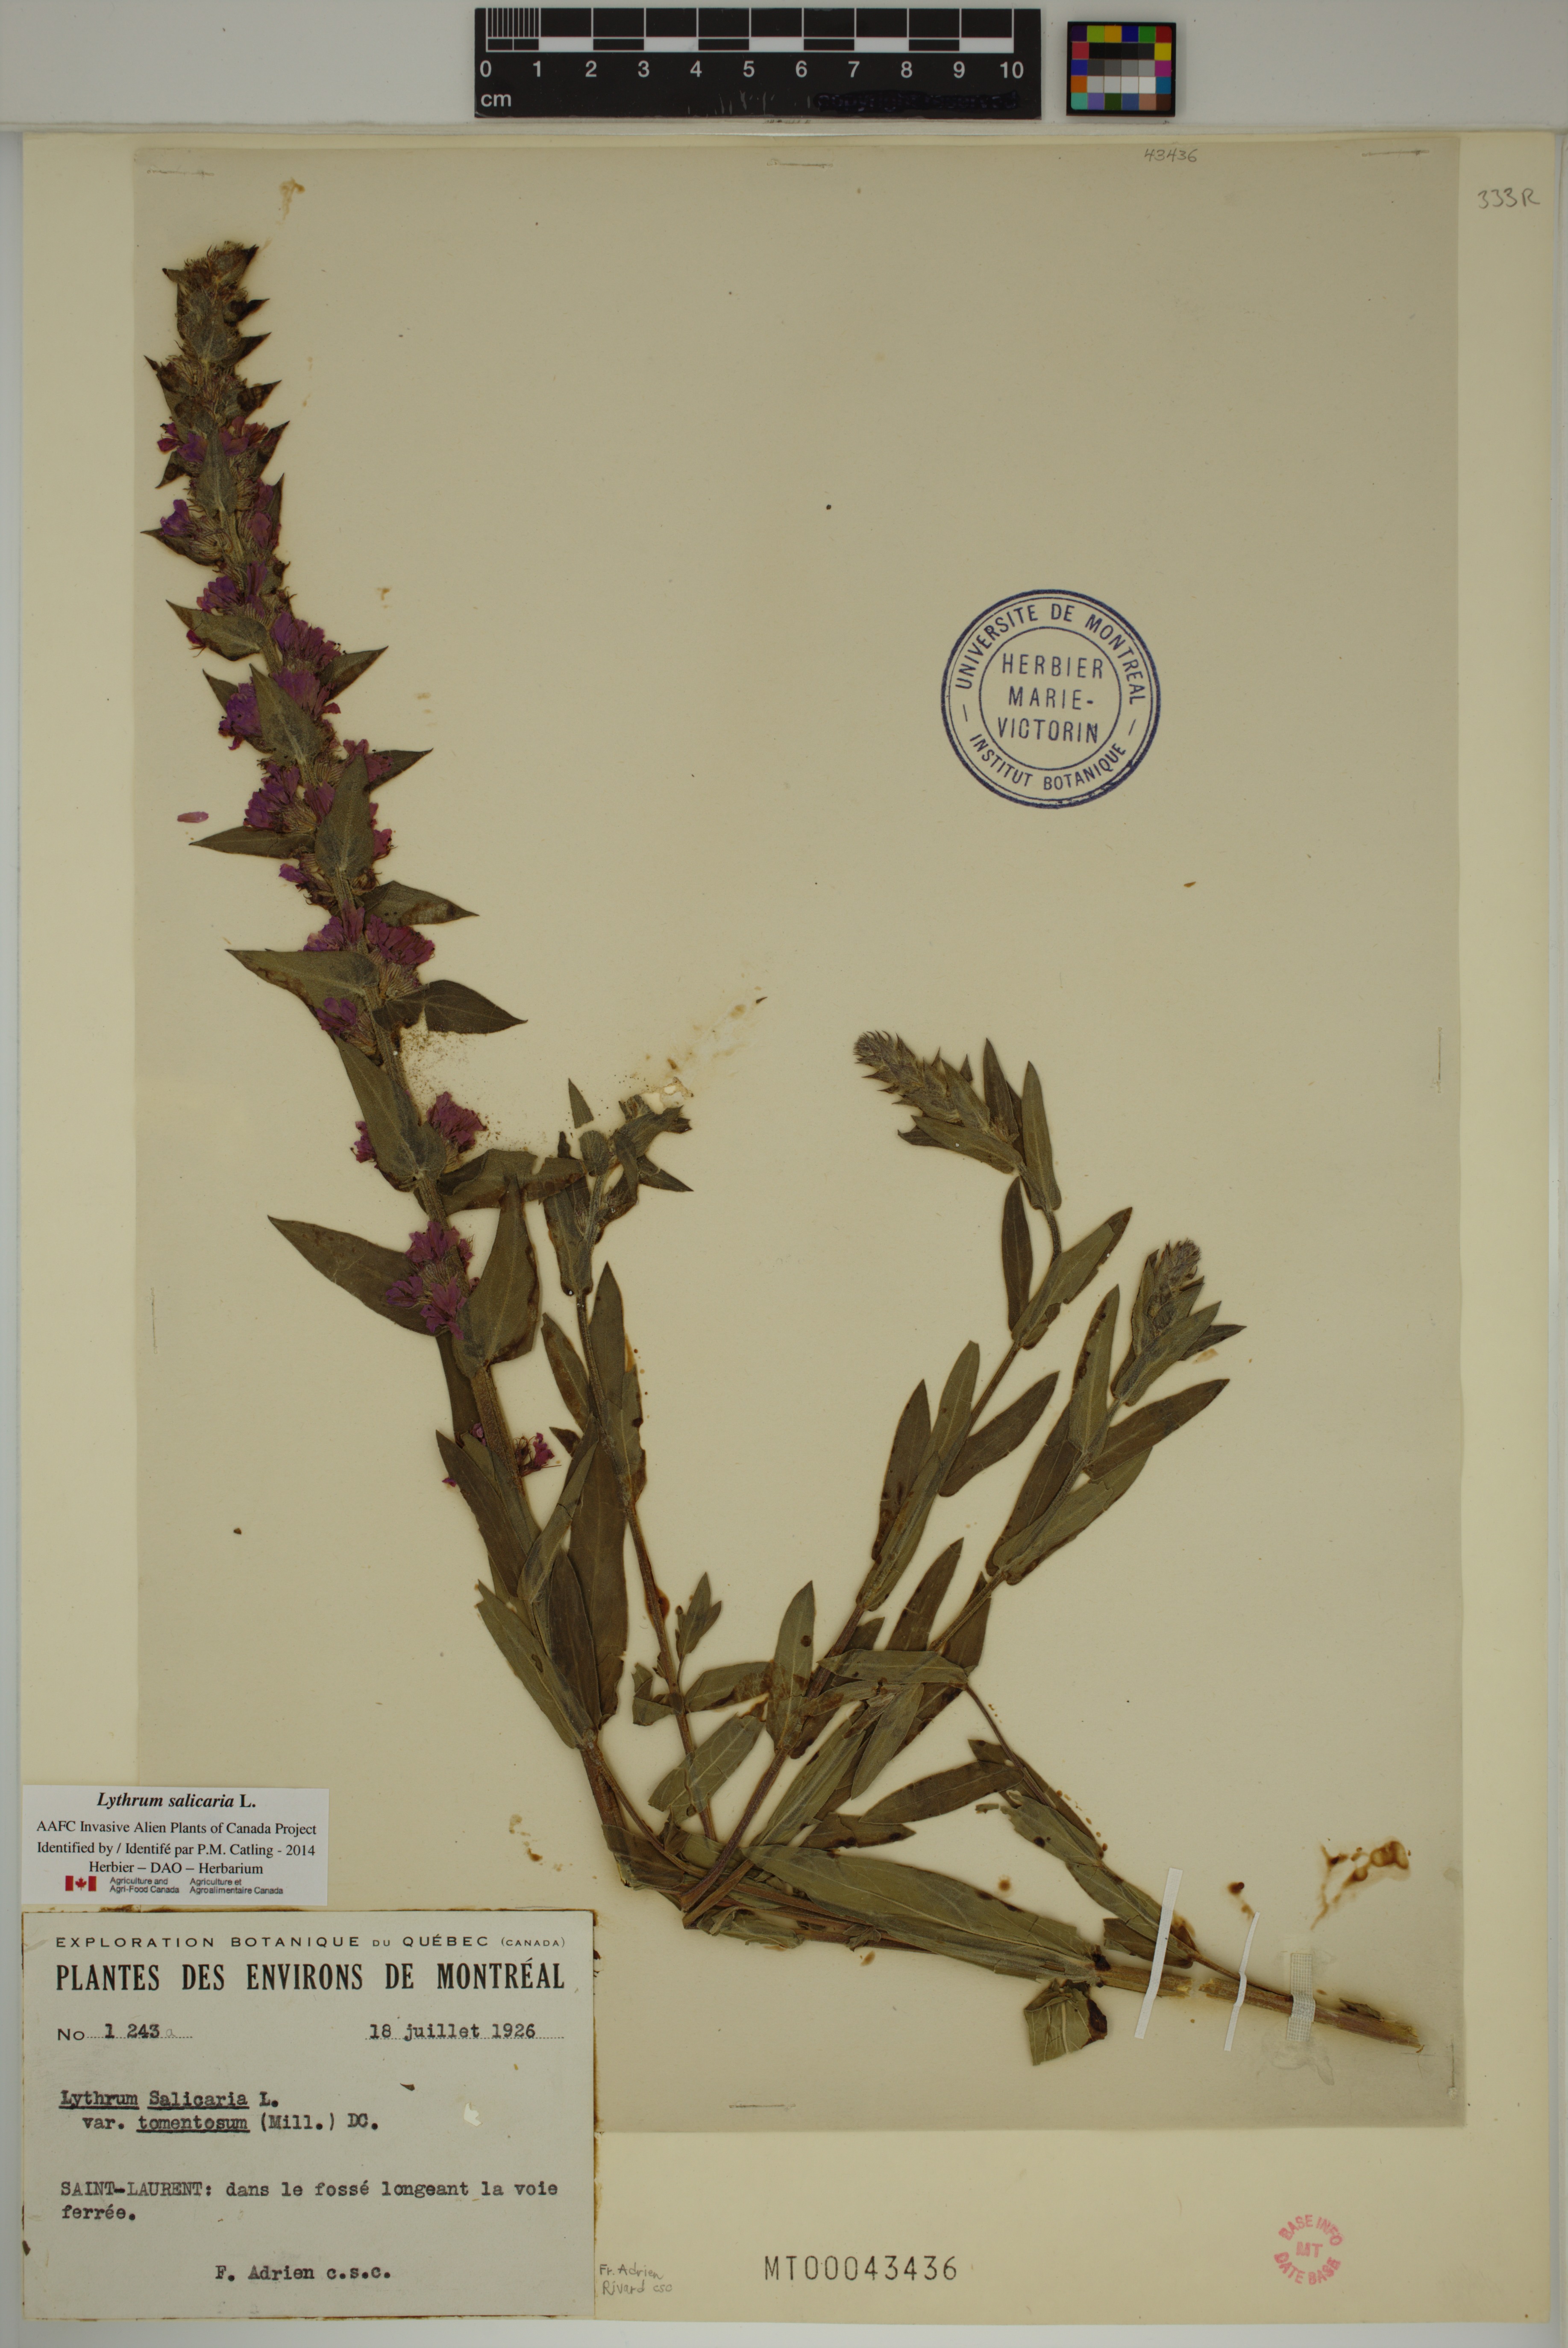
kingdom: Plantae
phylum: Tracheophyta
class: Magnoliopsida
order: Myrtales
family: Lythraceae
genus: Lythrum
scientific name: Lythrum salicaria
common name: Purple loosestrife
